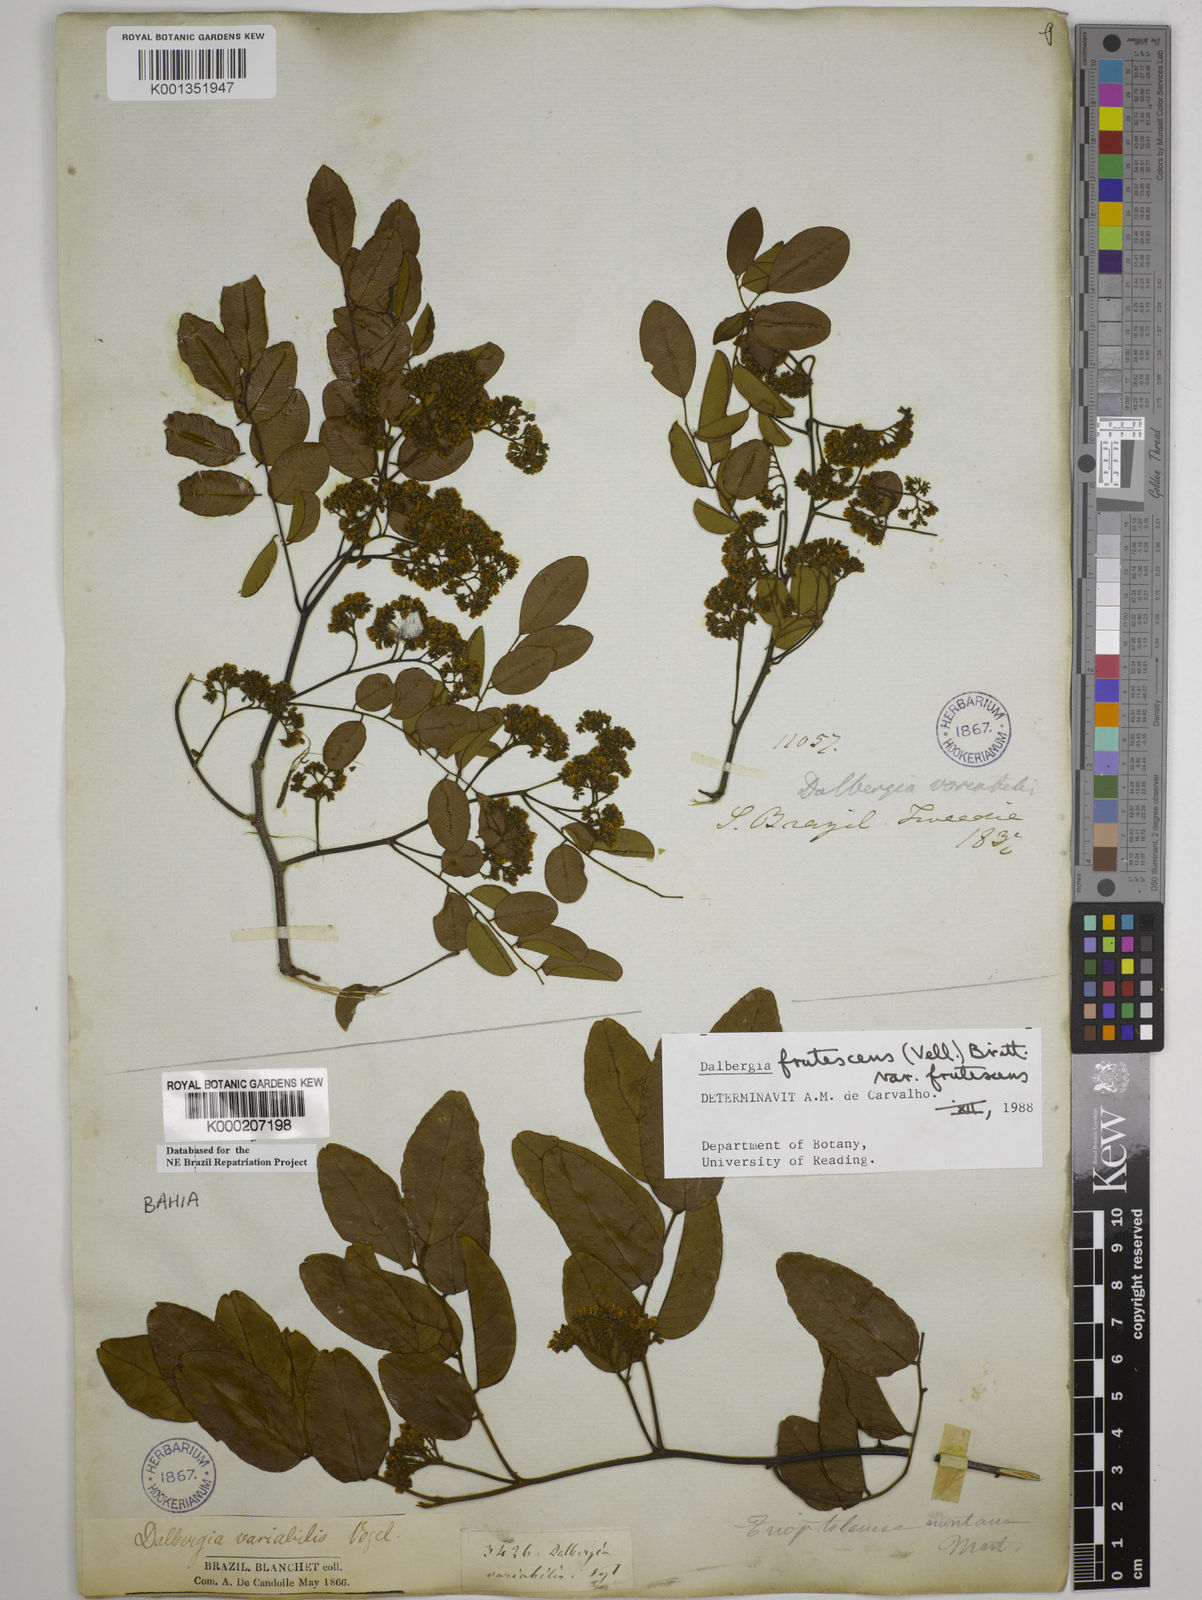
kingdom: Plantae
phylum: Tracheophyta
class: Magnoliopsida
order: Fabales
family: Fabaceae
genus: Dalbergia
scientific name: Dalbergia frutescens
